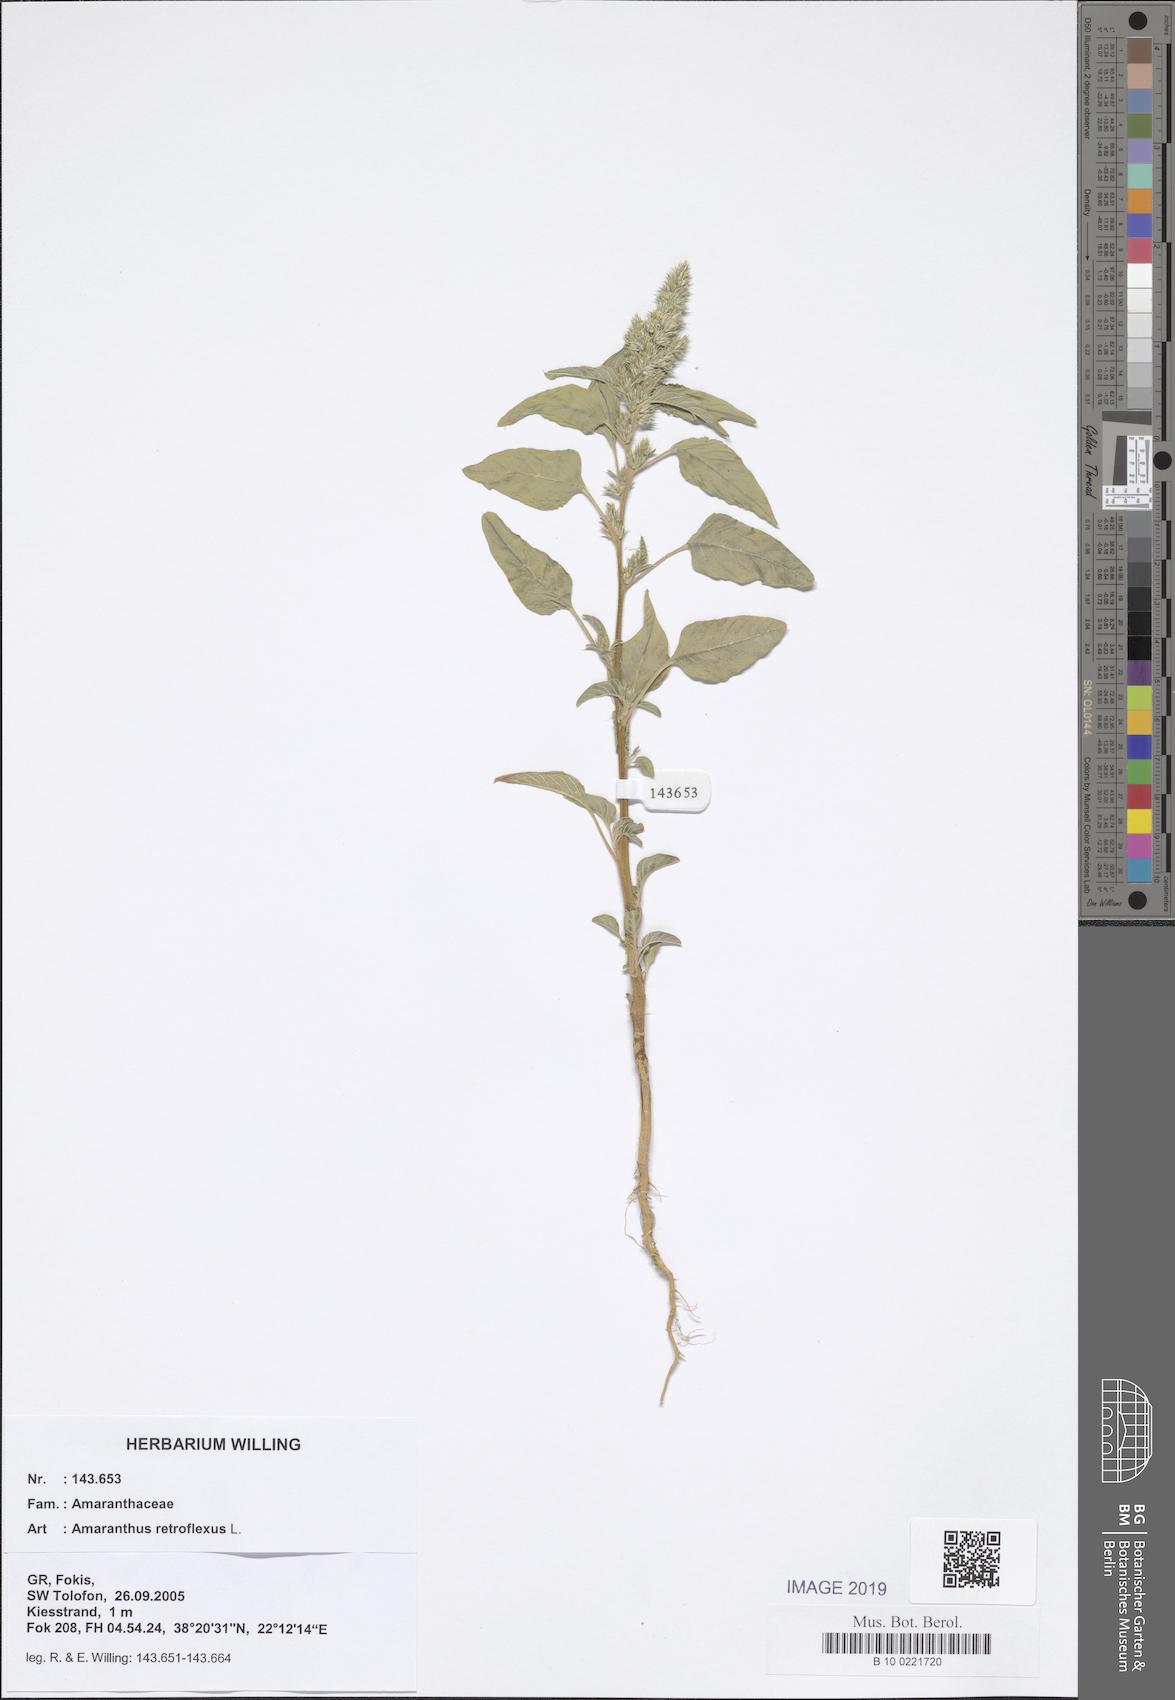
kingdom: Plantae
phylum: Tracheophyta
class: Magnoliopsida
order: Caryophyllales
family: Amaranthaceae
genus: Amaranthus
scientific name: Amaranthus retroflexus
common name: Redroot amaranth
